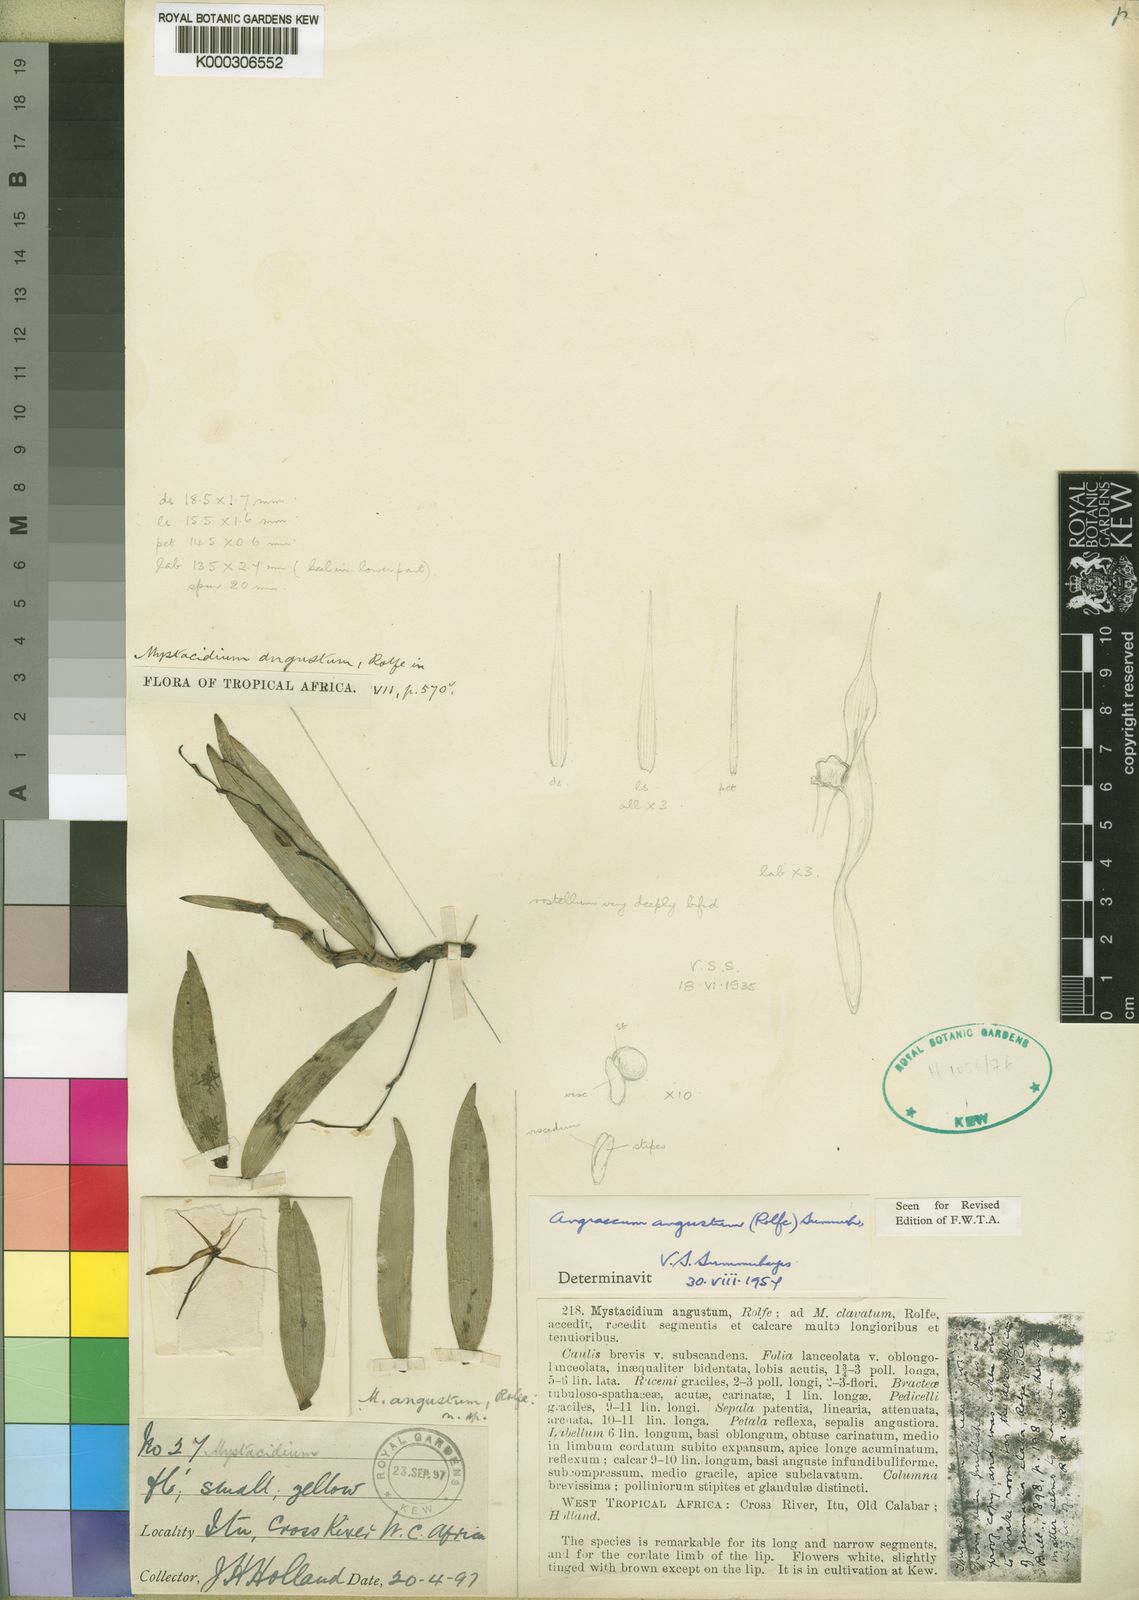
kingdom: Plantae
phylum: Tracheophyta
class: Liliopsida
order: Asparagales
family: Orchidaceae
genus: Angraecum
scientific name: Angraecum angustum
